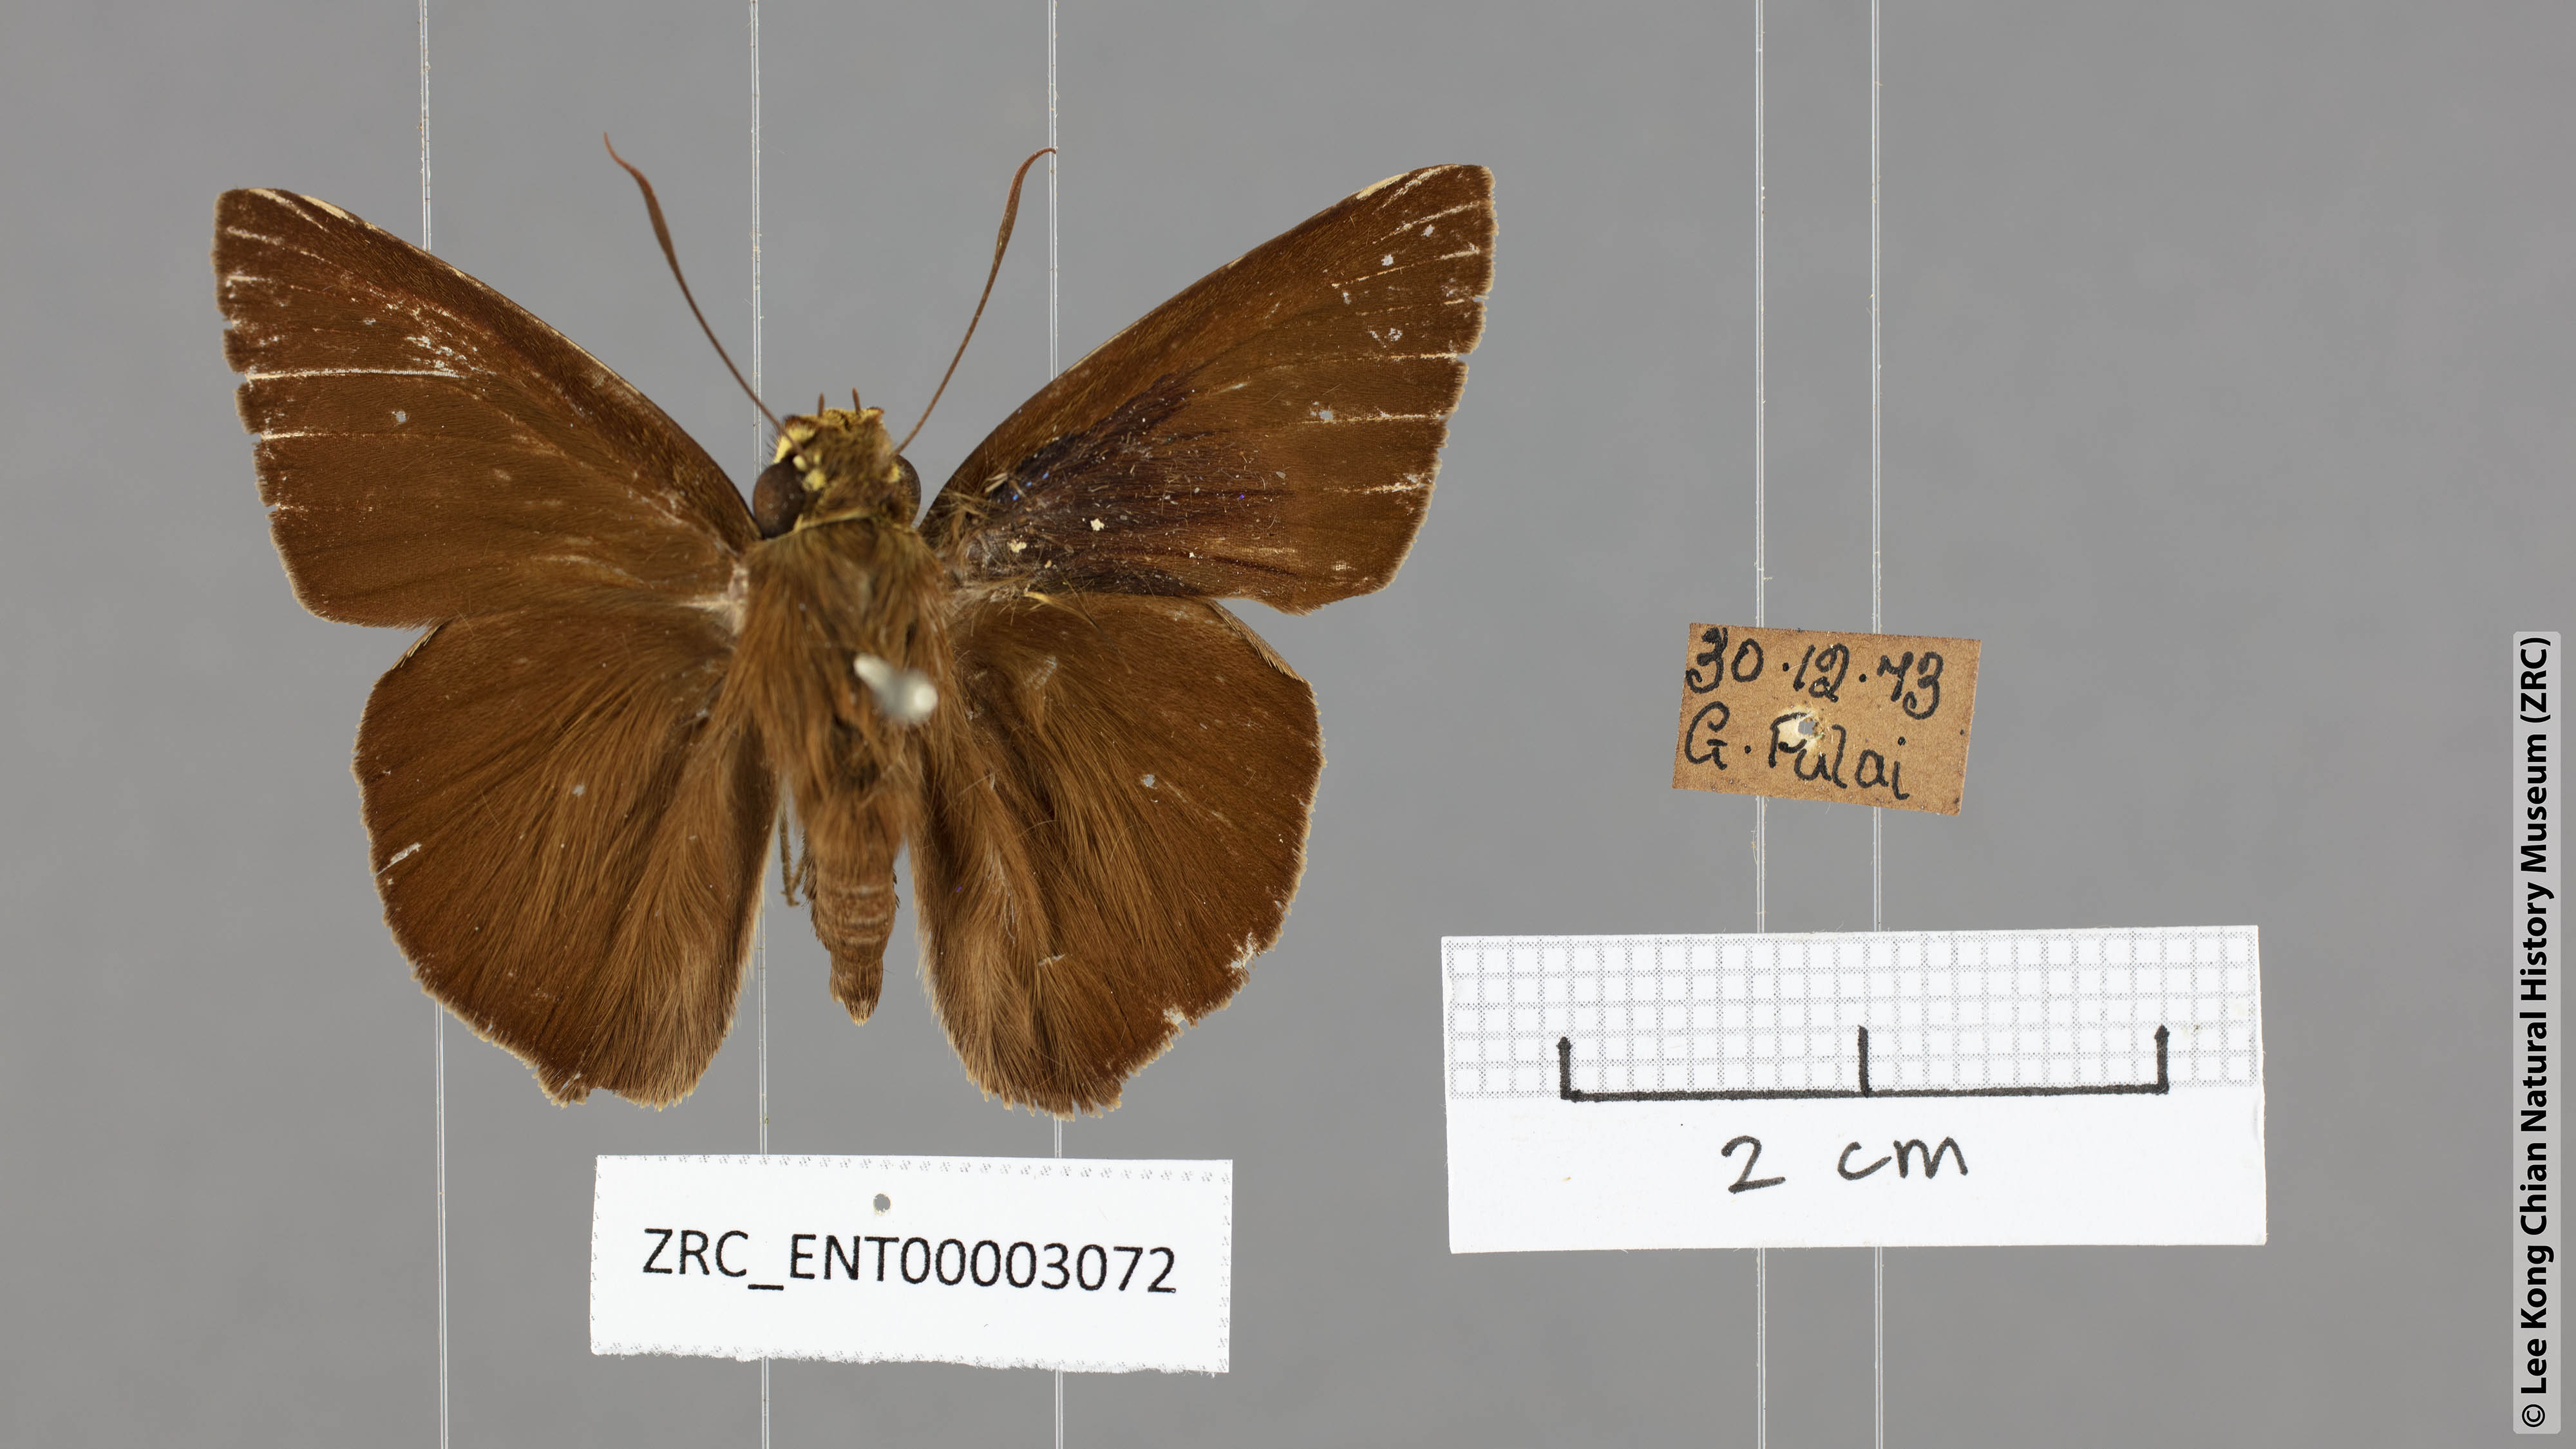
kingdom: Animalia
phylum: Arthropoda
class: Insecta
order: Lepidoptera
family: Hesperiidae
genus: Hasora
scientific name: Hasora salanga
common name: Black-tailed awl
